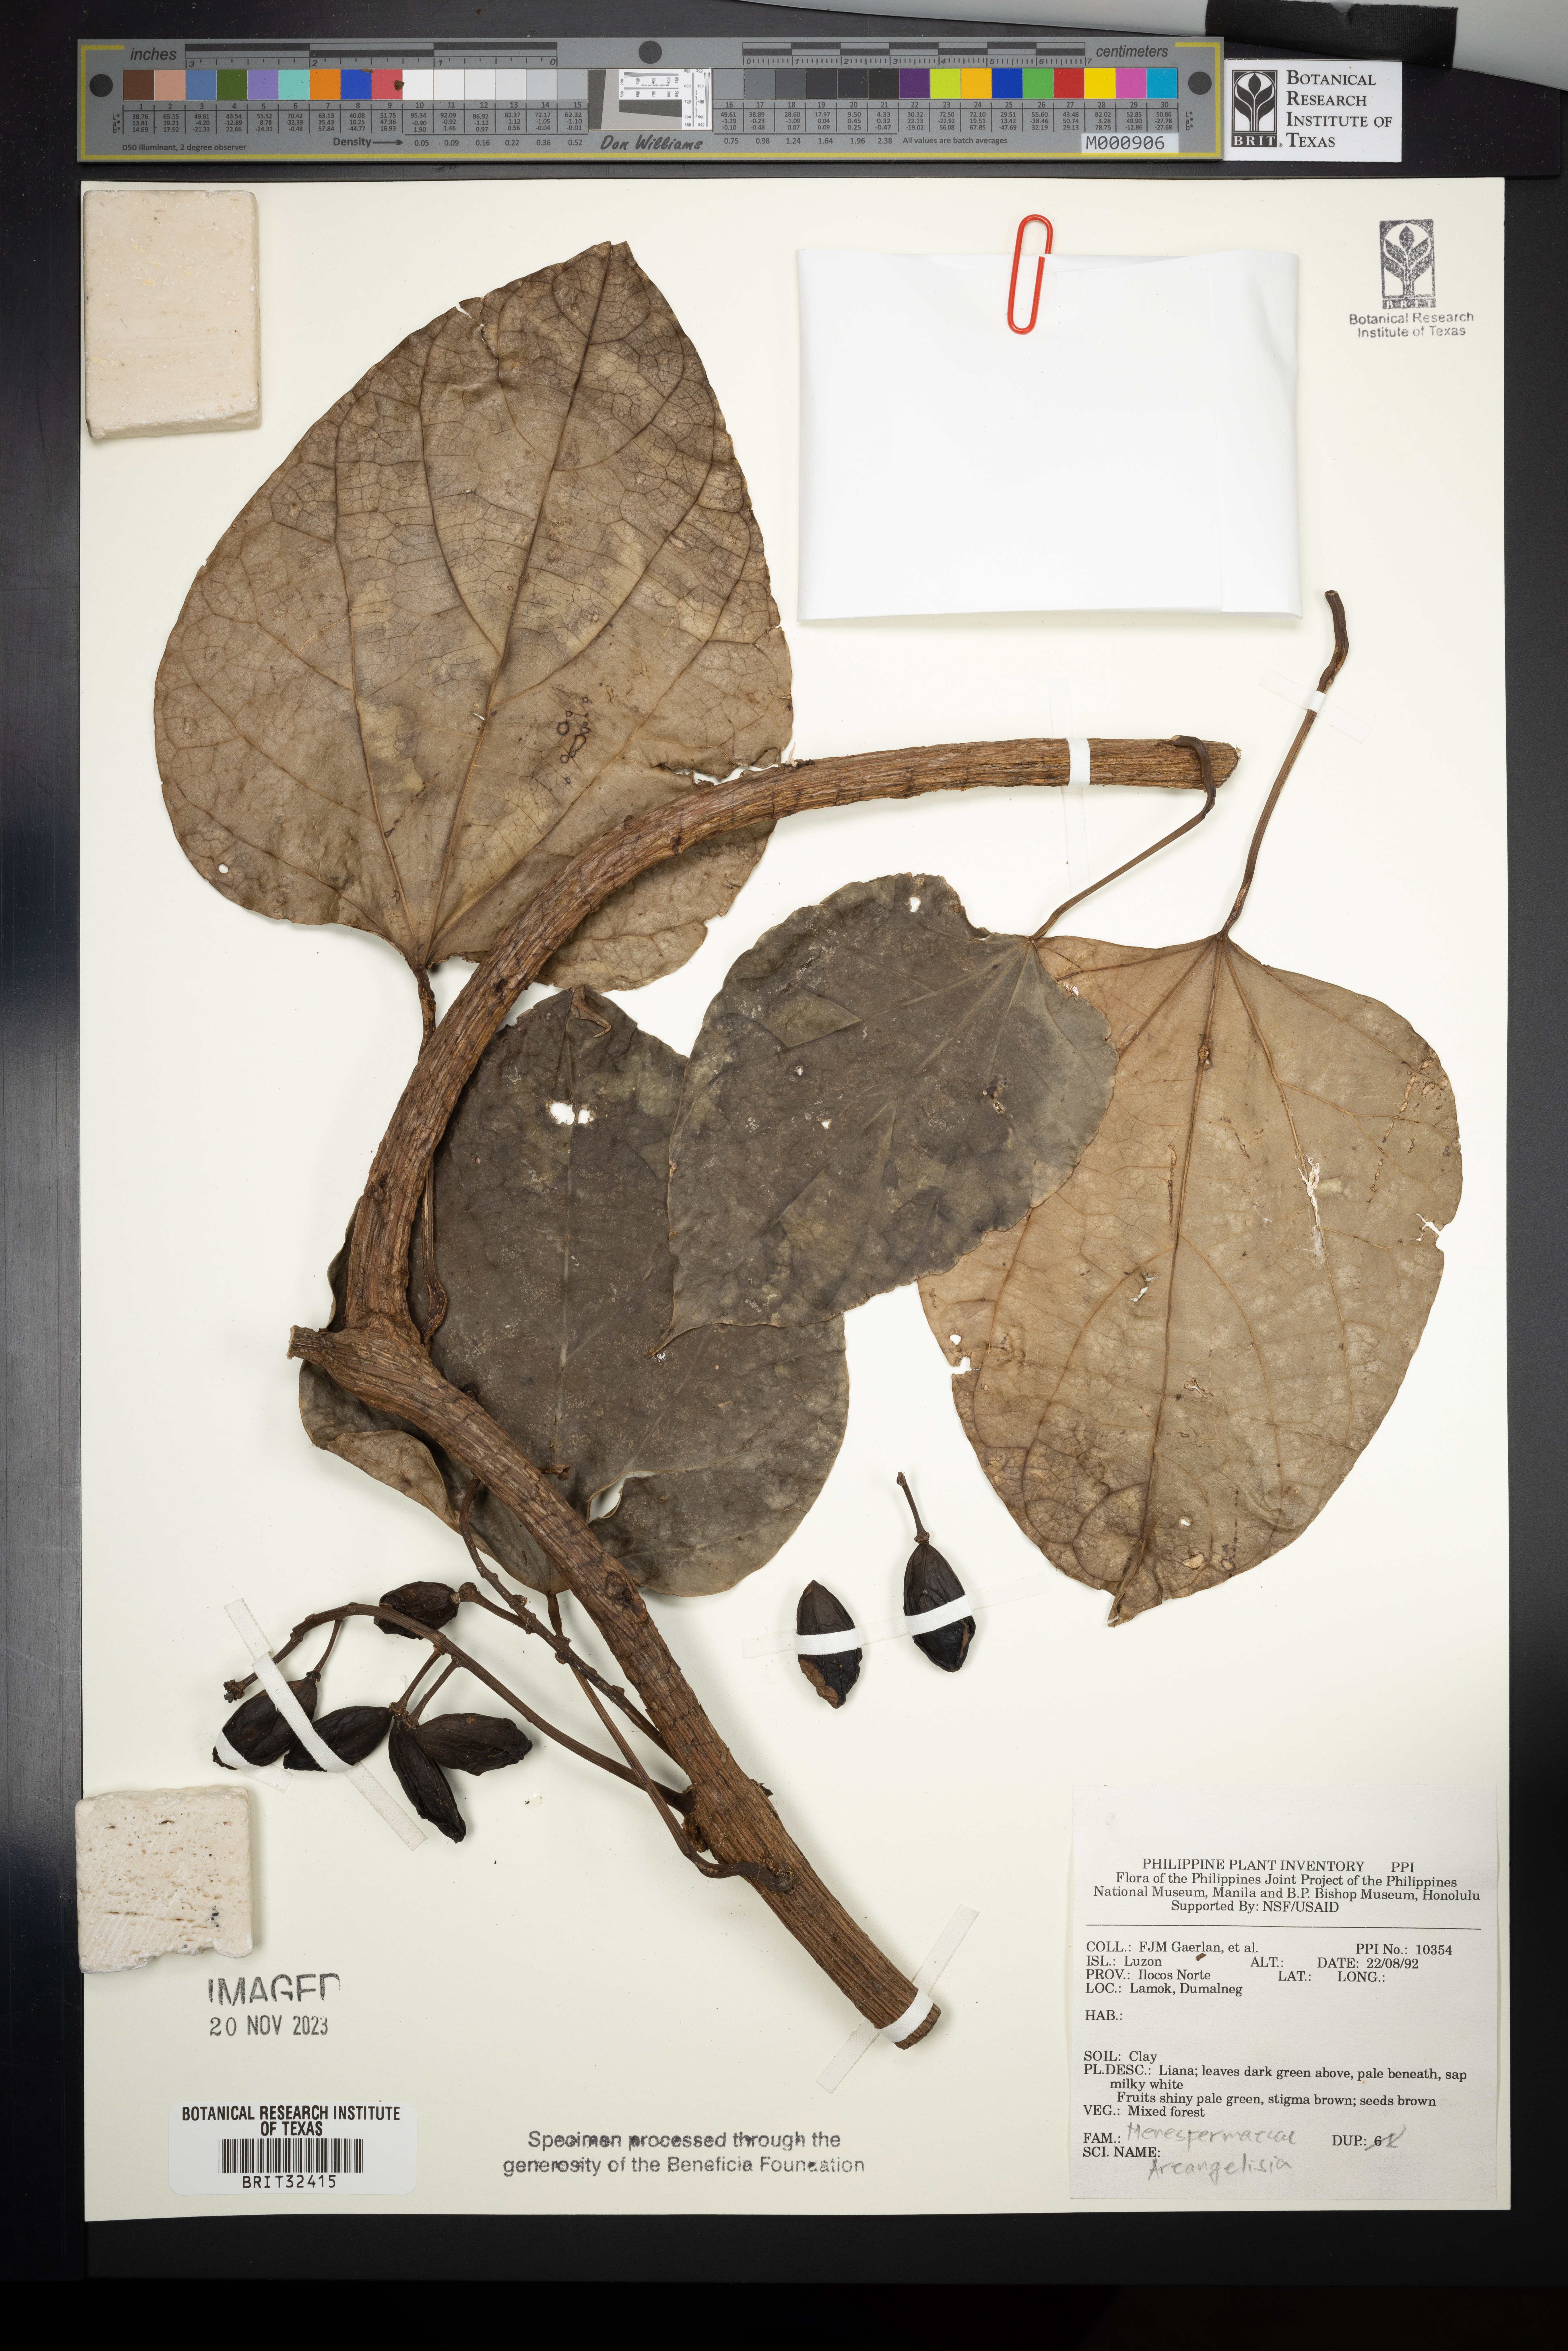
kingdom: Plantae
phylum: Tracheophyta
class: Magnoliopsida
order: Ranunculales
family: Menispermaceae
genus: Arcangelisia
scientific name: Arcangelisia
